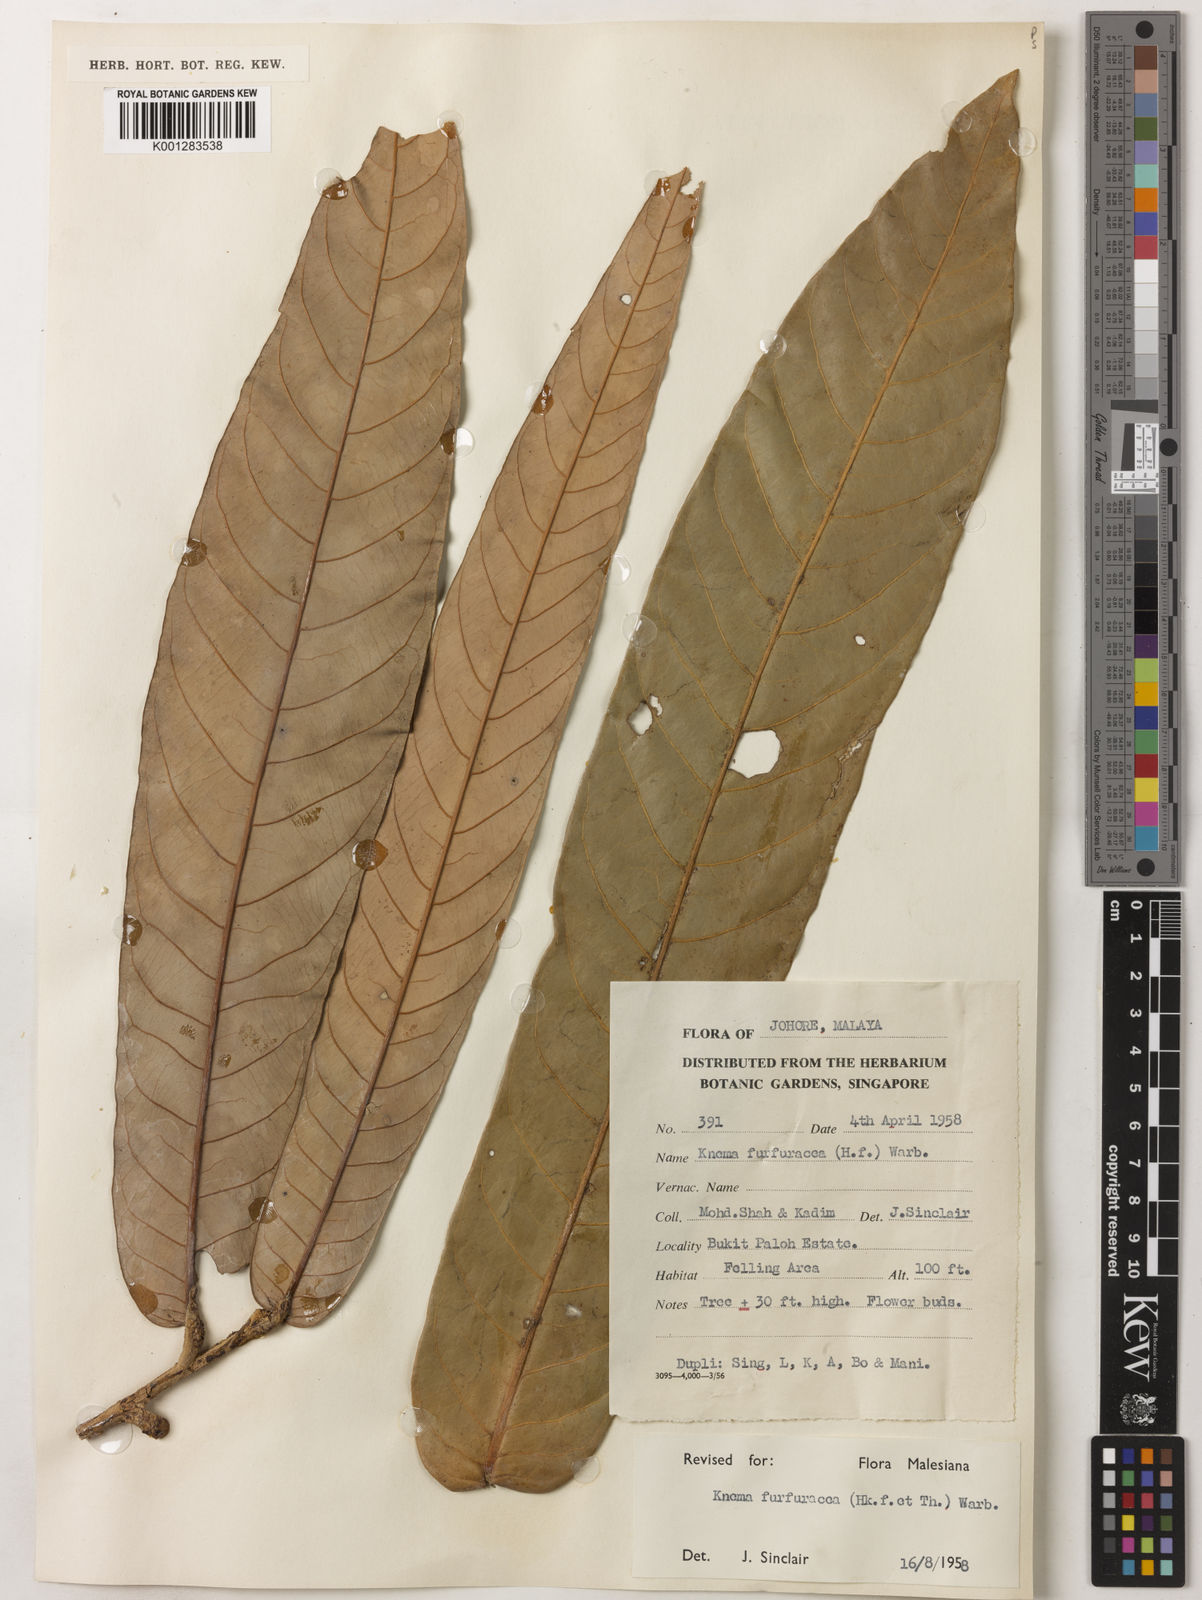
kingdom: Plantae
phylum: Tracheophyta
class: Magnoliopsida
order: Magnoliales
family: Myristicaceae
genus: Knema
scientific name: Knema furfuracea
